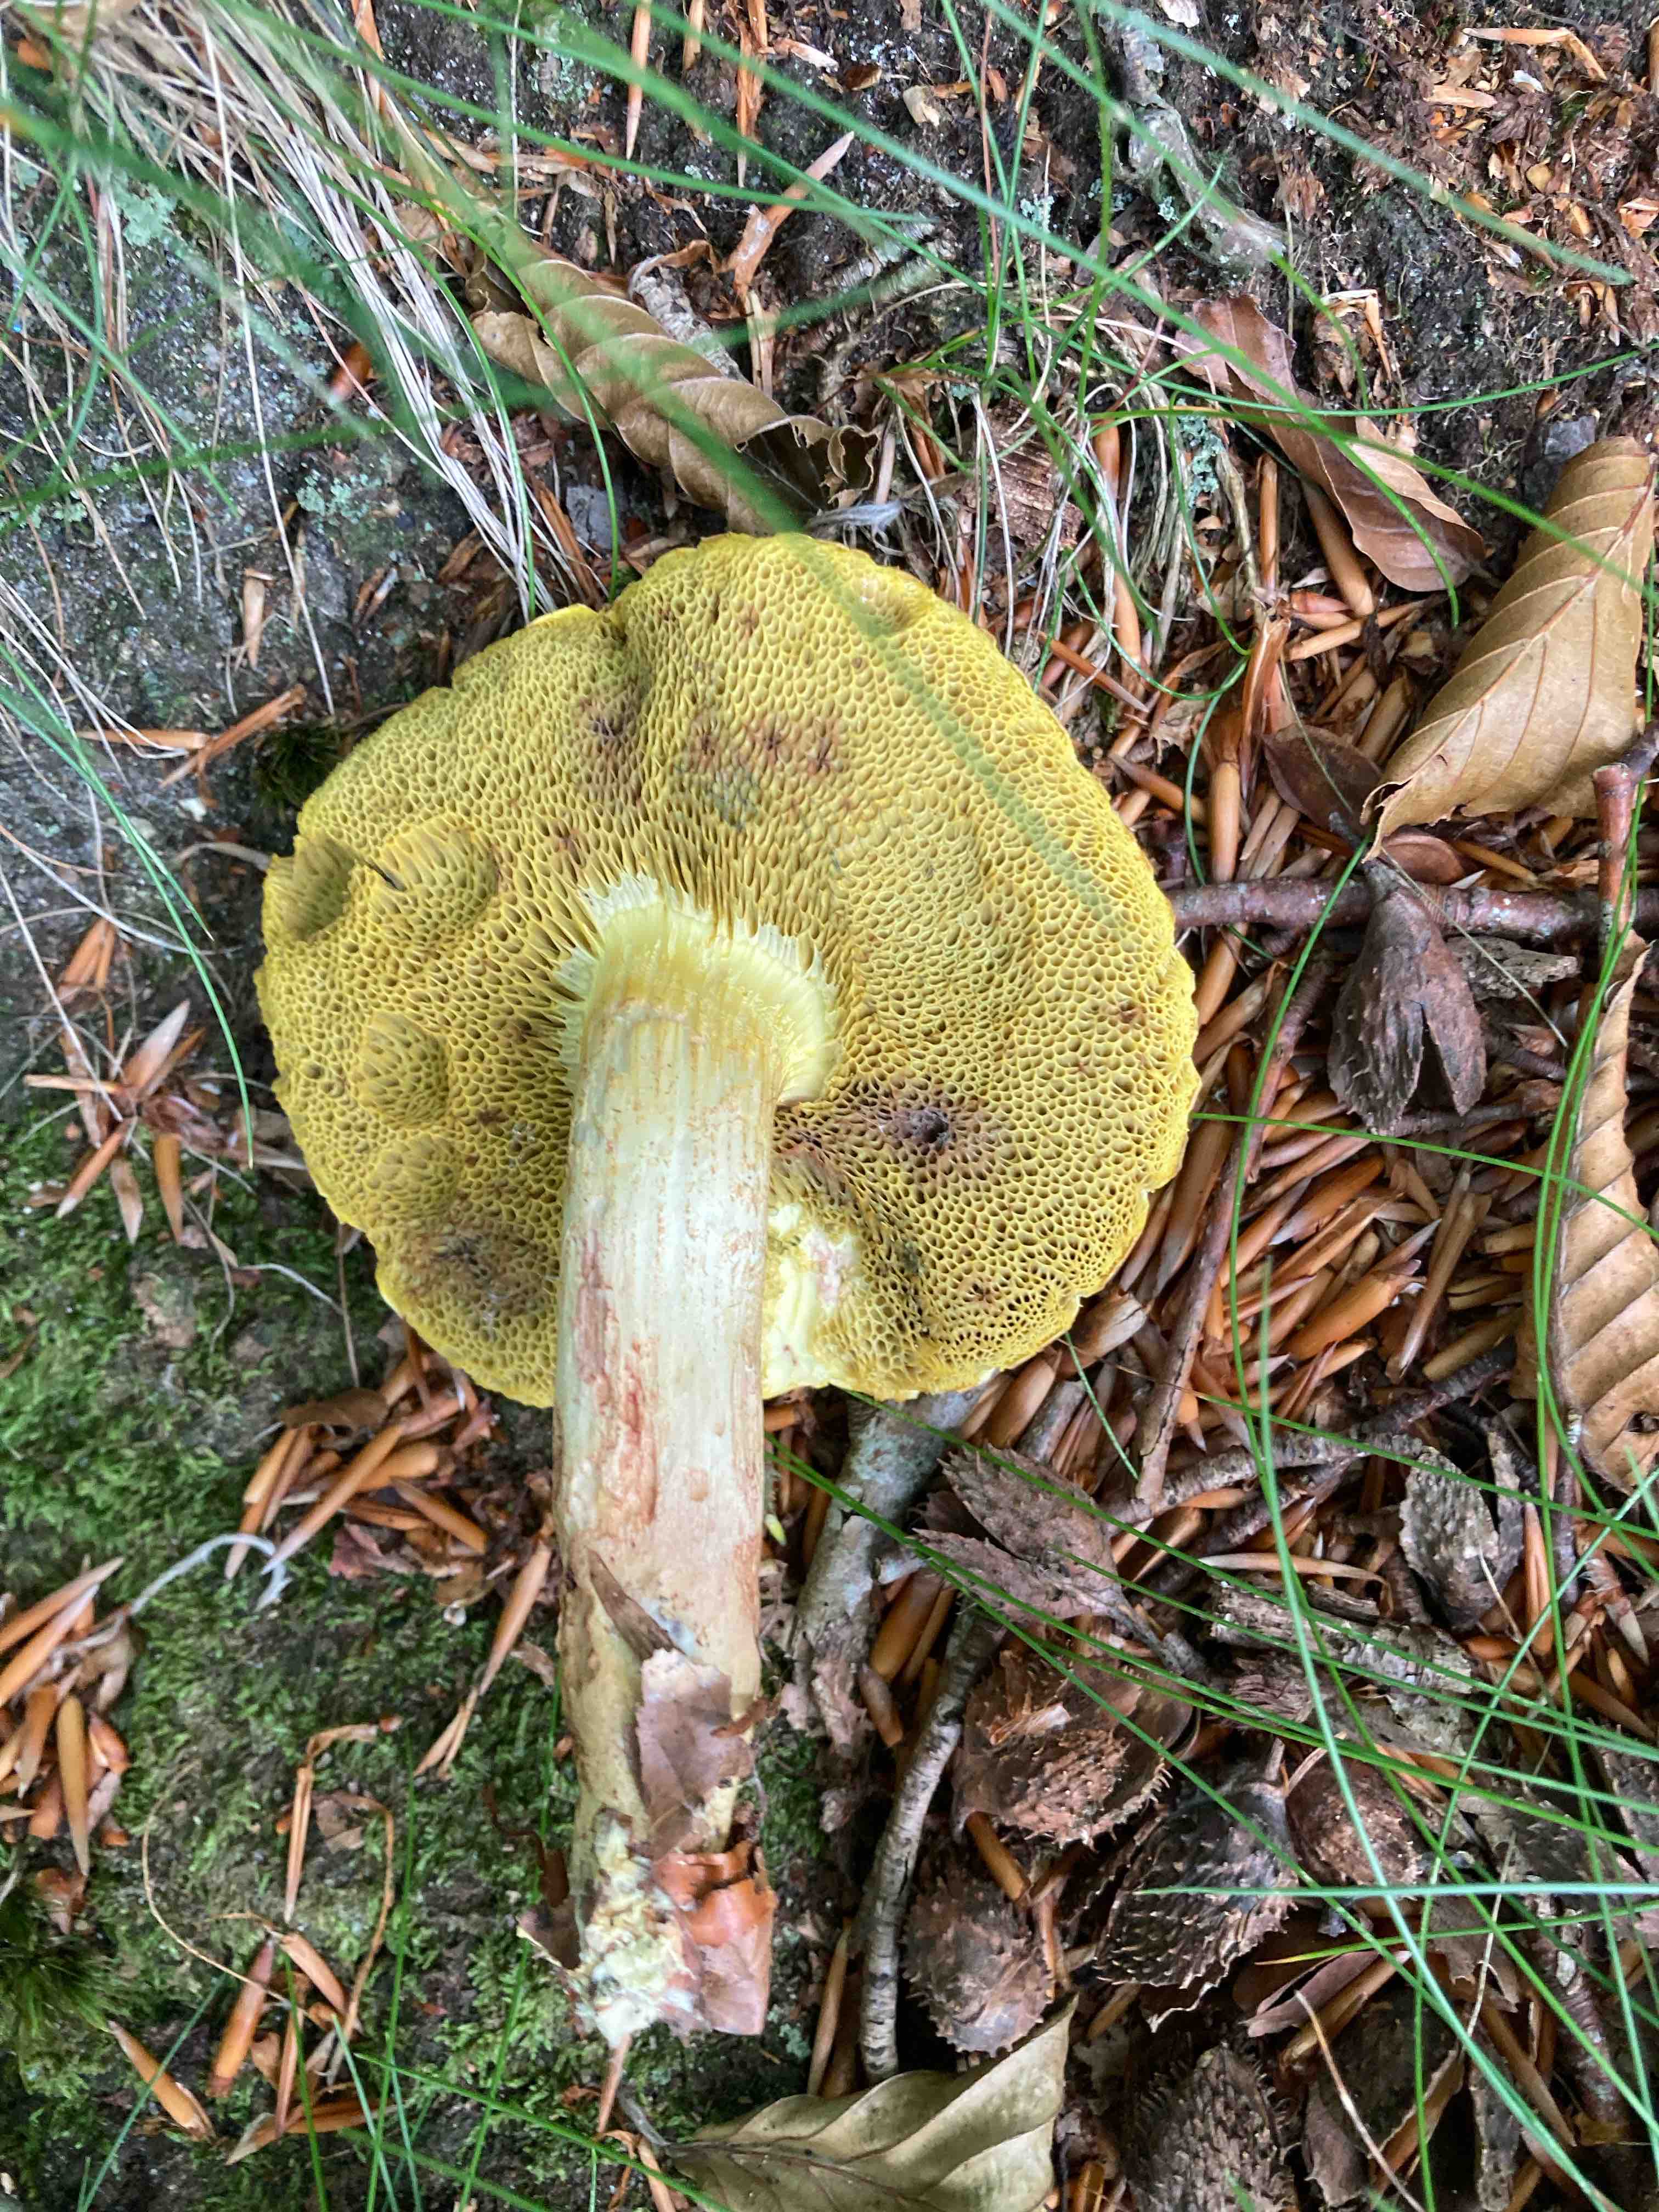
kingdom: Fungi
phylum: Basidiomycota
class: Agaricomycetes
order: Boletales
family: Boletaceae
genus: Xerocomus
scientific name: Xerocomus subtomentosus
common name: filtet rørhat
